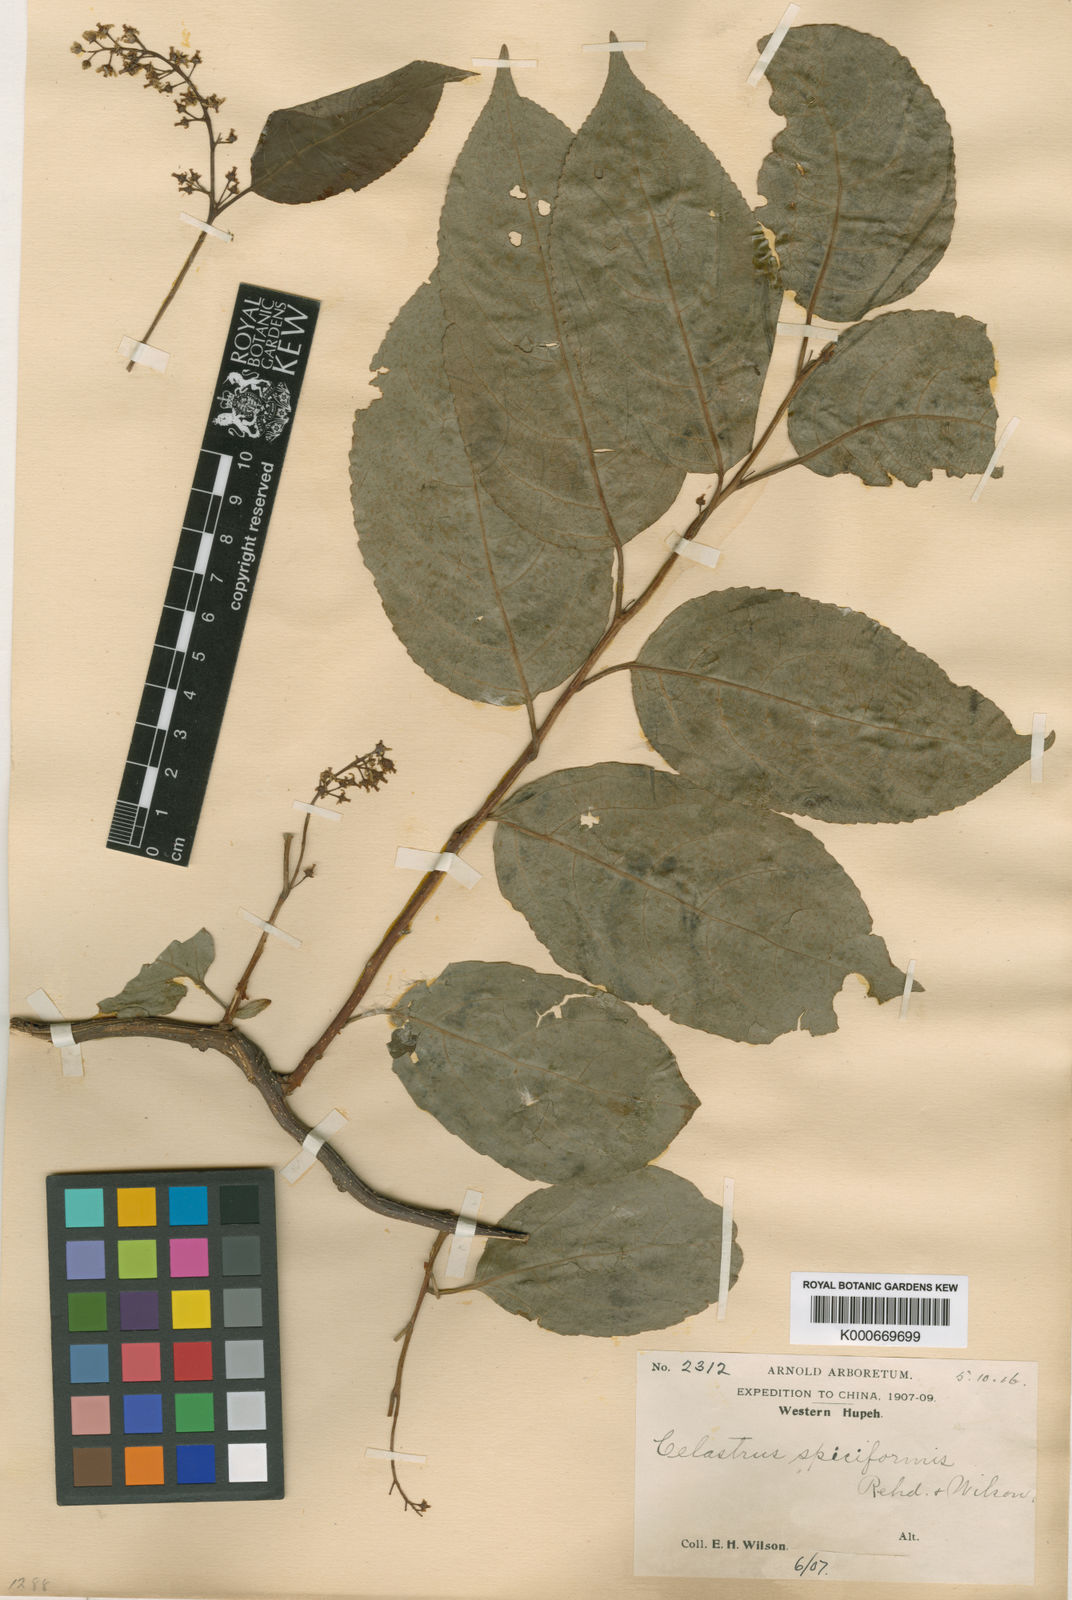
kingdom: Plantae
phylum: Tracheophyta
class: Magnoliopsida
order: Celastrales
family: Celastraceae
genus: Celastrus
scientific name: Celastrus
